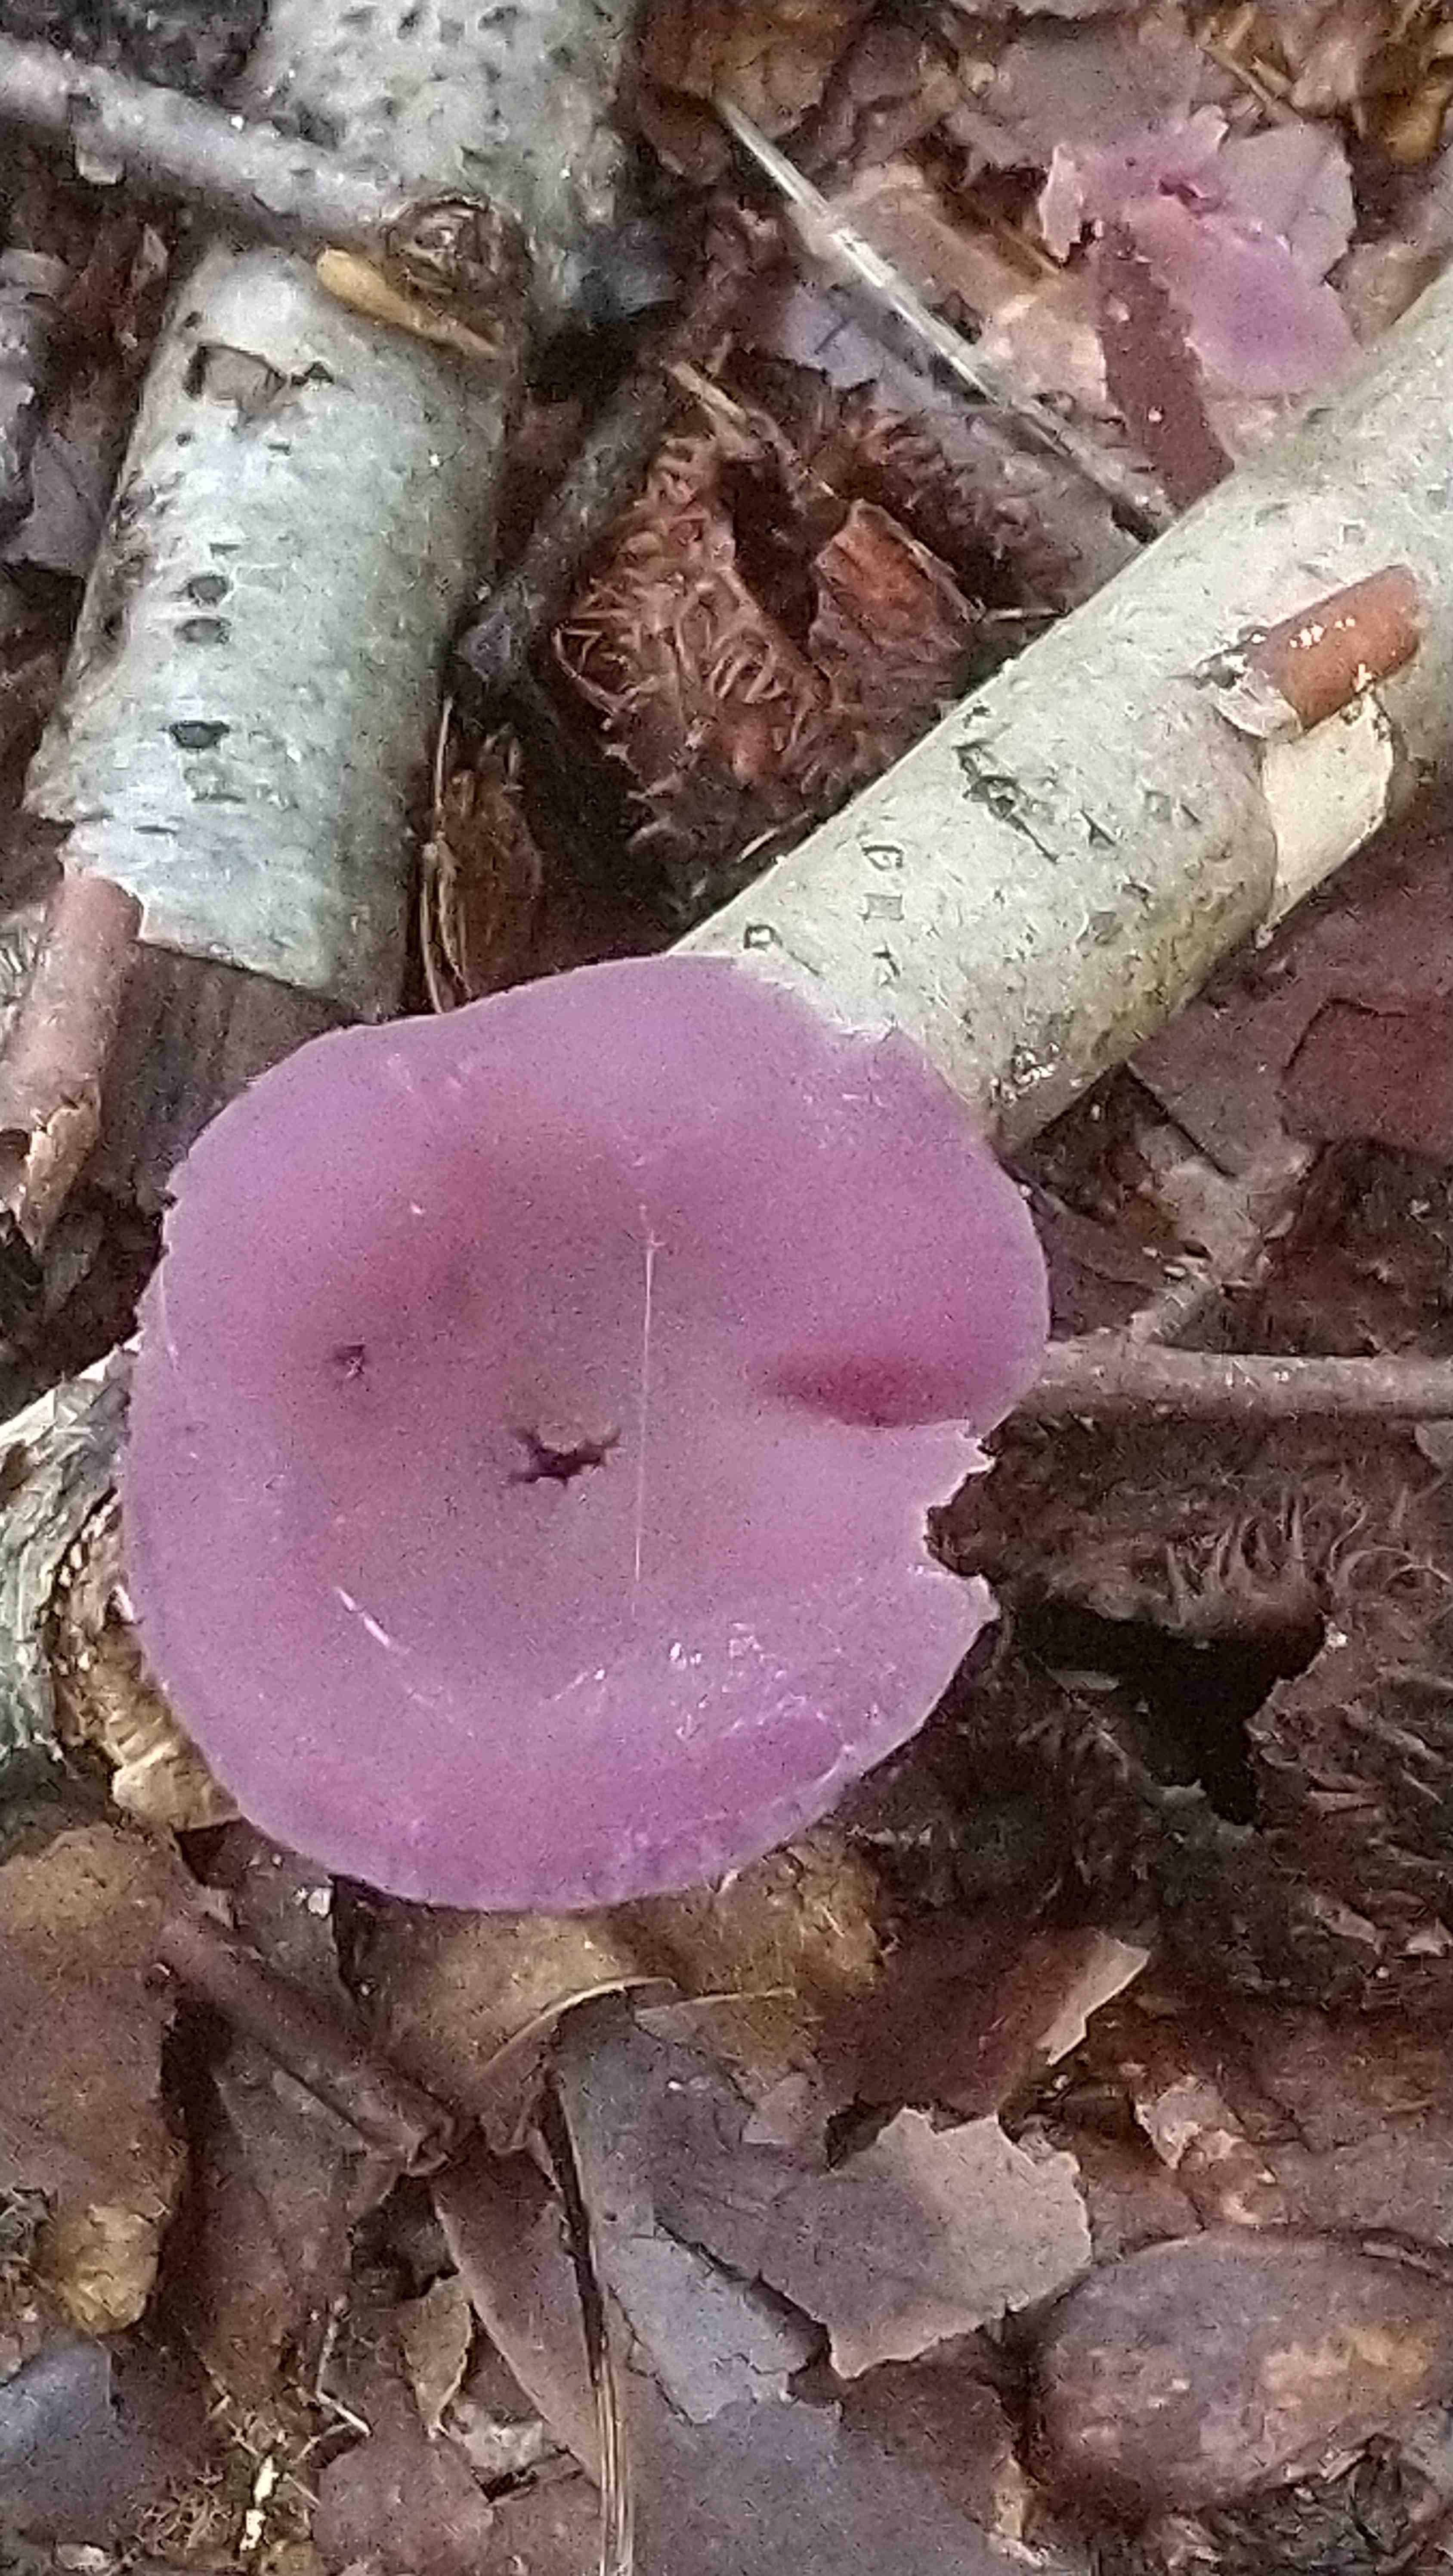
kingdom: Fungi
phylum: Basidiomycota
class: Agaricomycetes
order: Agaricales
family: Hydnangiaceae
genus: Laccaria
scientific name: Laccaria amethystina
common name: violet ametysthat
